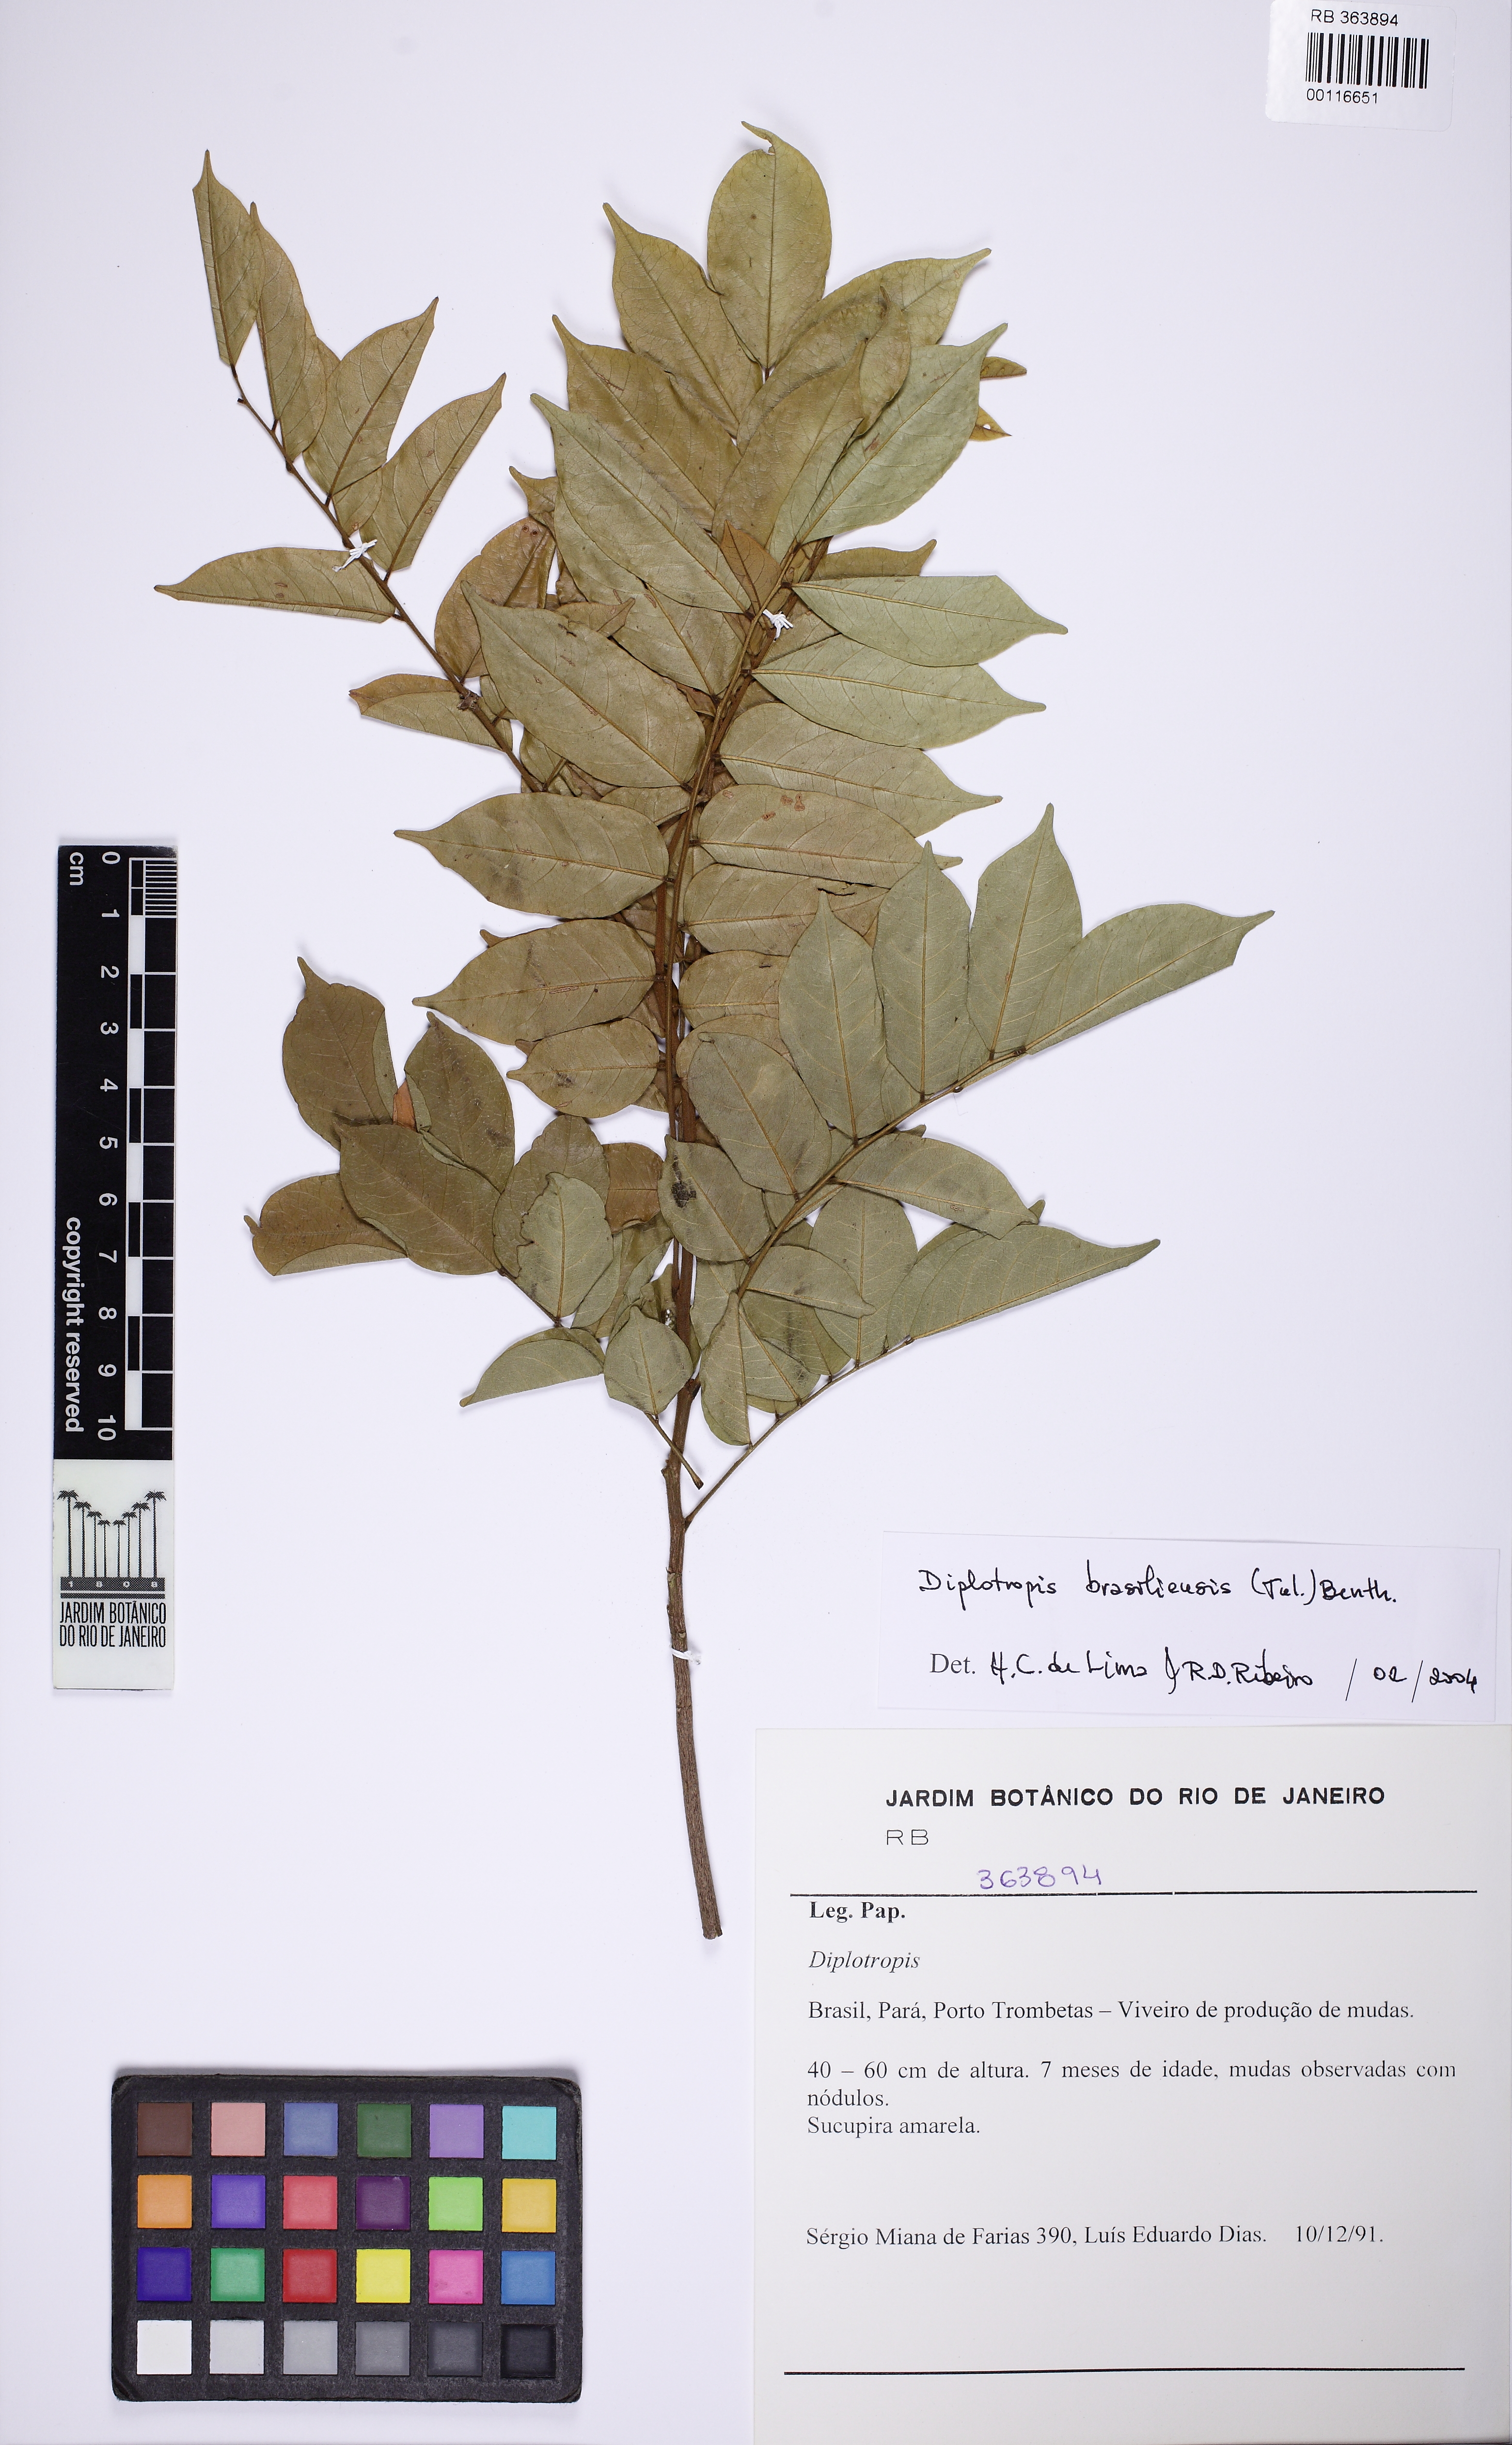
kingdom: Plantae
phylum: Tracheophyta
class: Magnoliopsida
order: Fabales
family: Fabaceae
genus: Diplotropis
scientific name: Diplotropis purpurea
